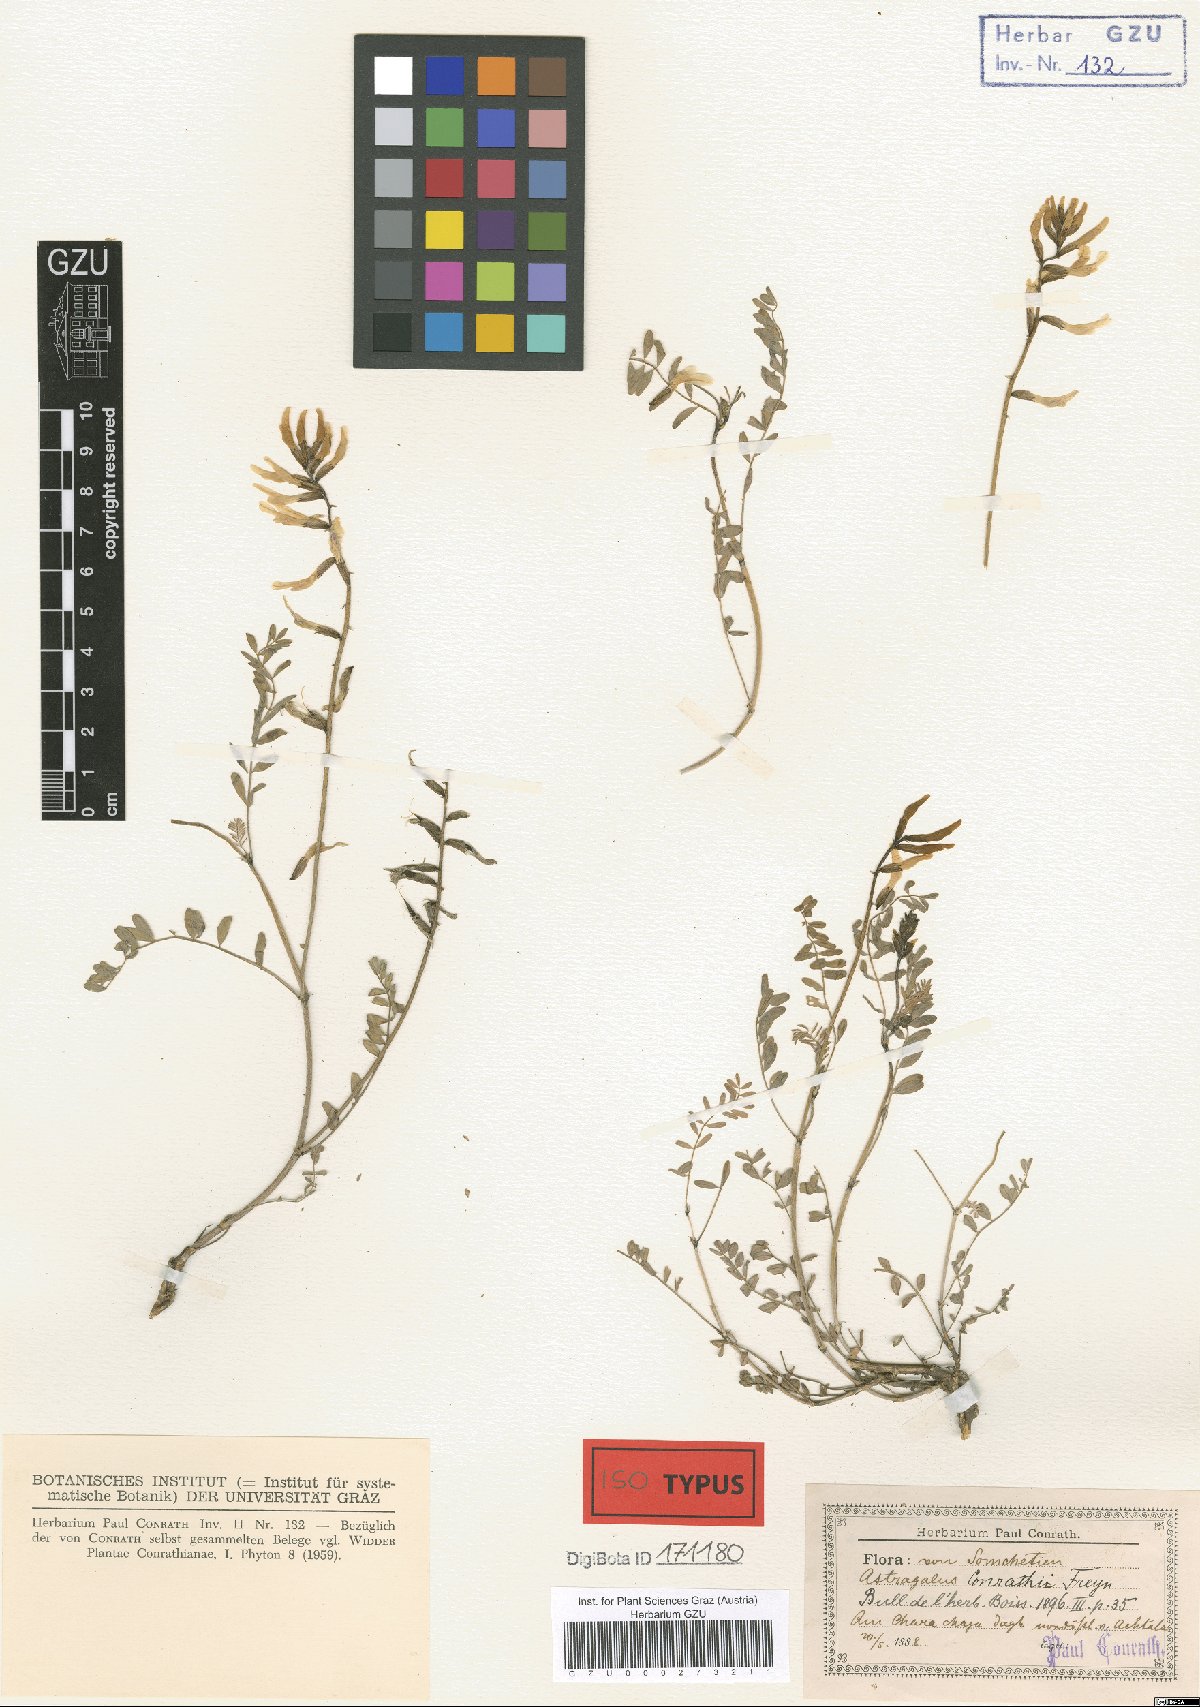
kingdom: Plantae
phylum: Tracheophyta
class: Magnoliopsida
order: Fabales
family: Fabaceae
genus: Astragalus
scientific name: Astragalus ornithopodioides
